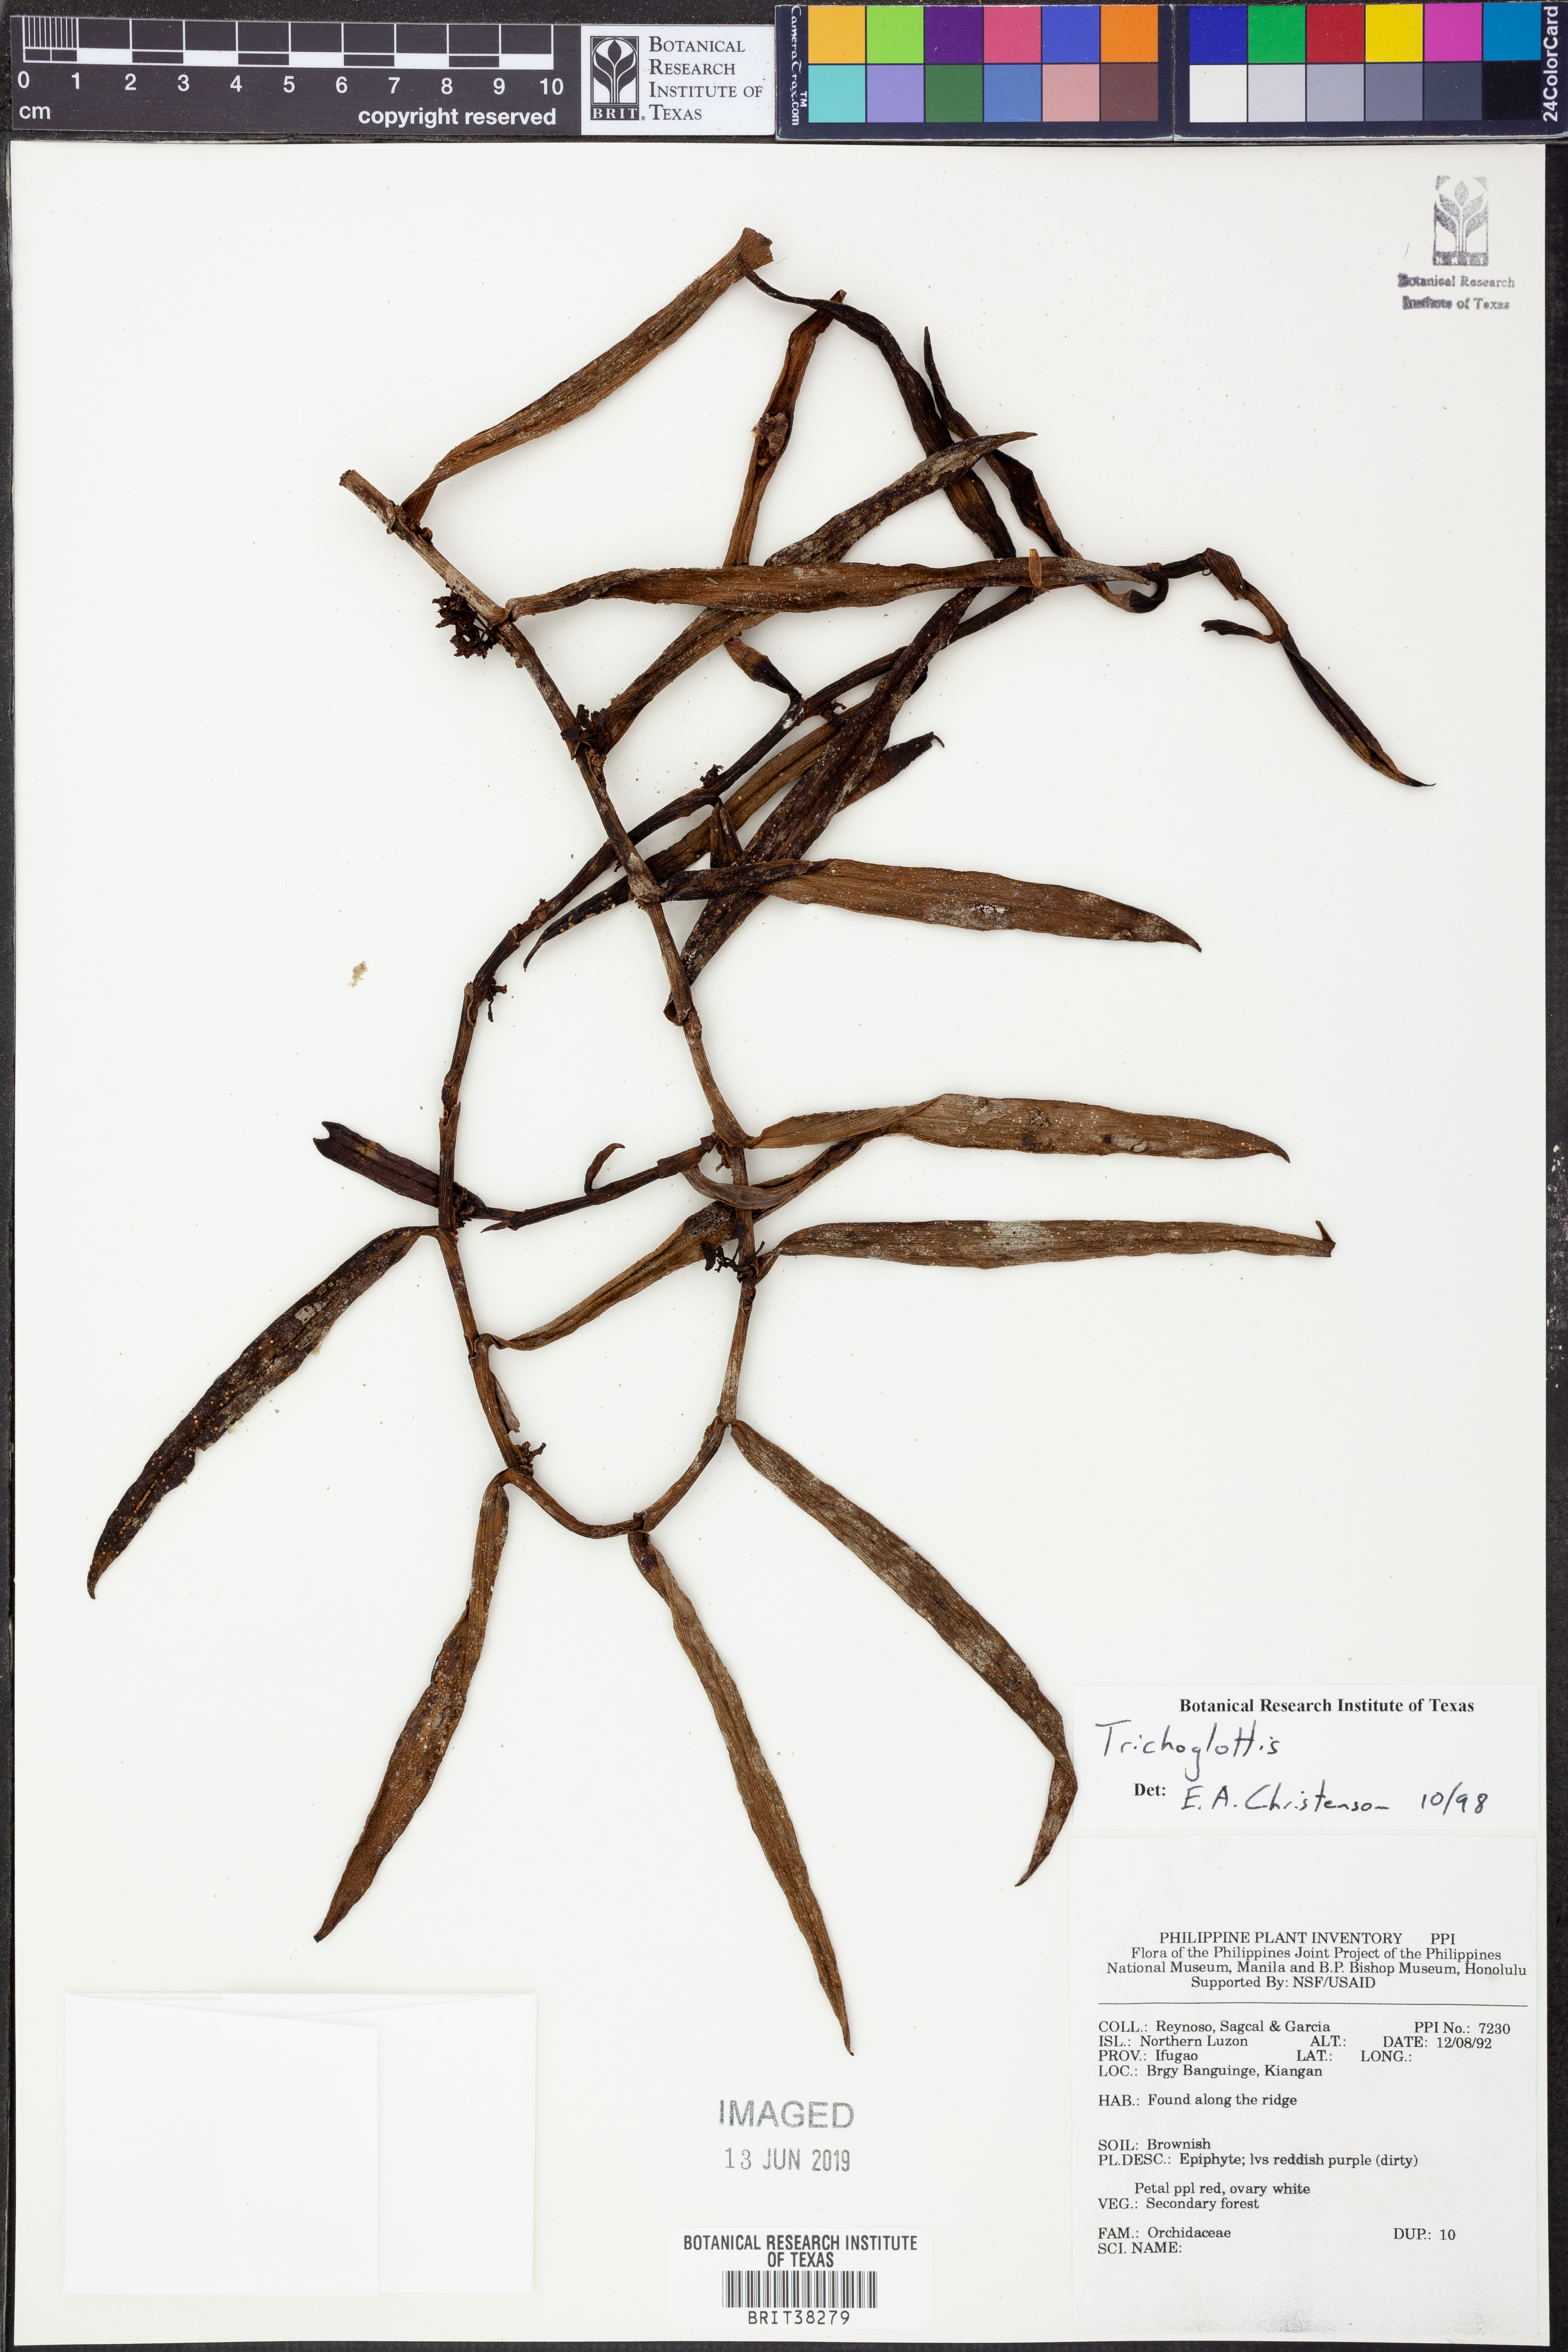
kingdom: Plantae
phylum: Tracheophyta
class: Liliopsida
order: Asparagales
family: Orchidaceae
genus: Trichoglottis
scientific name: Trichoglottis
